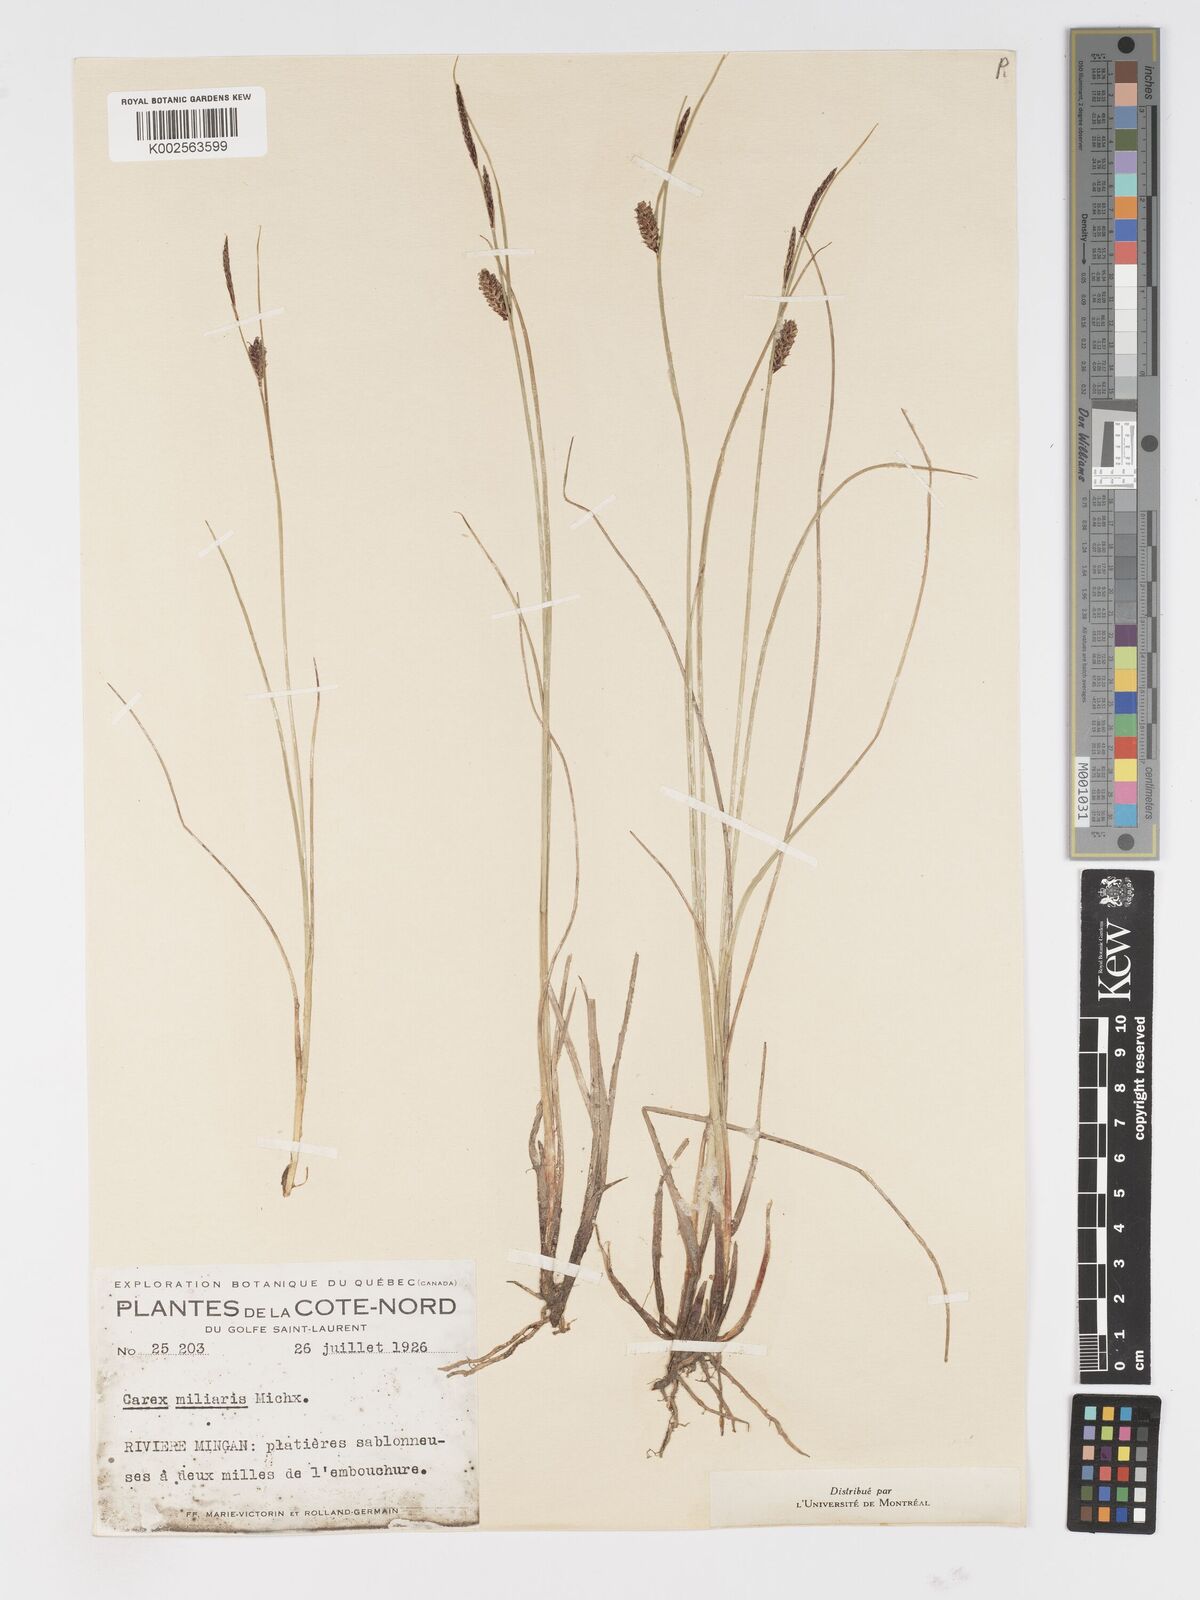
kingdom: Plantae
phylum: Tracheophyta
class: Liliopsida
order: Poales
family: Cyperaceae
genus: Carex
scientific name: Carex miliaris
